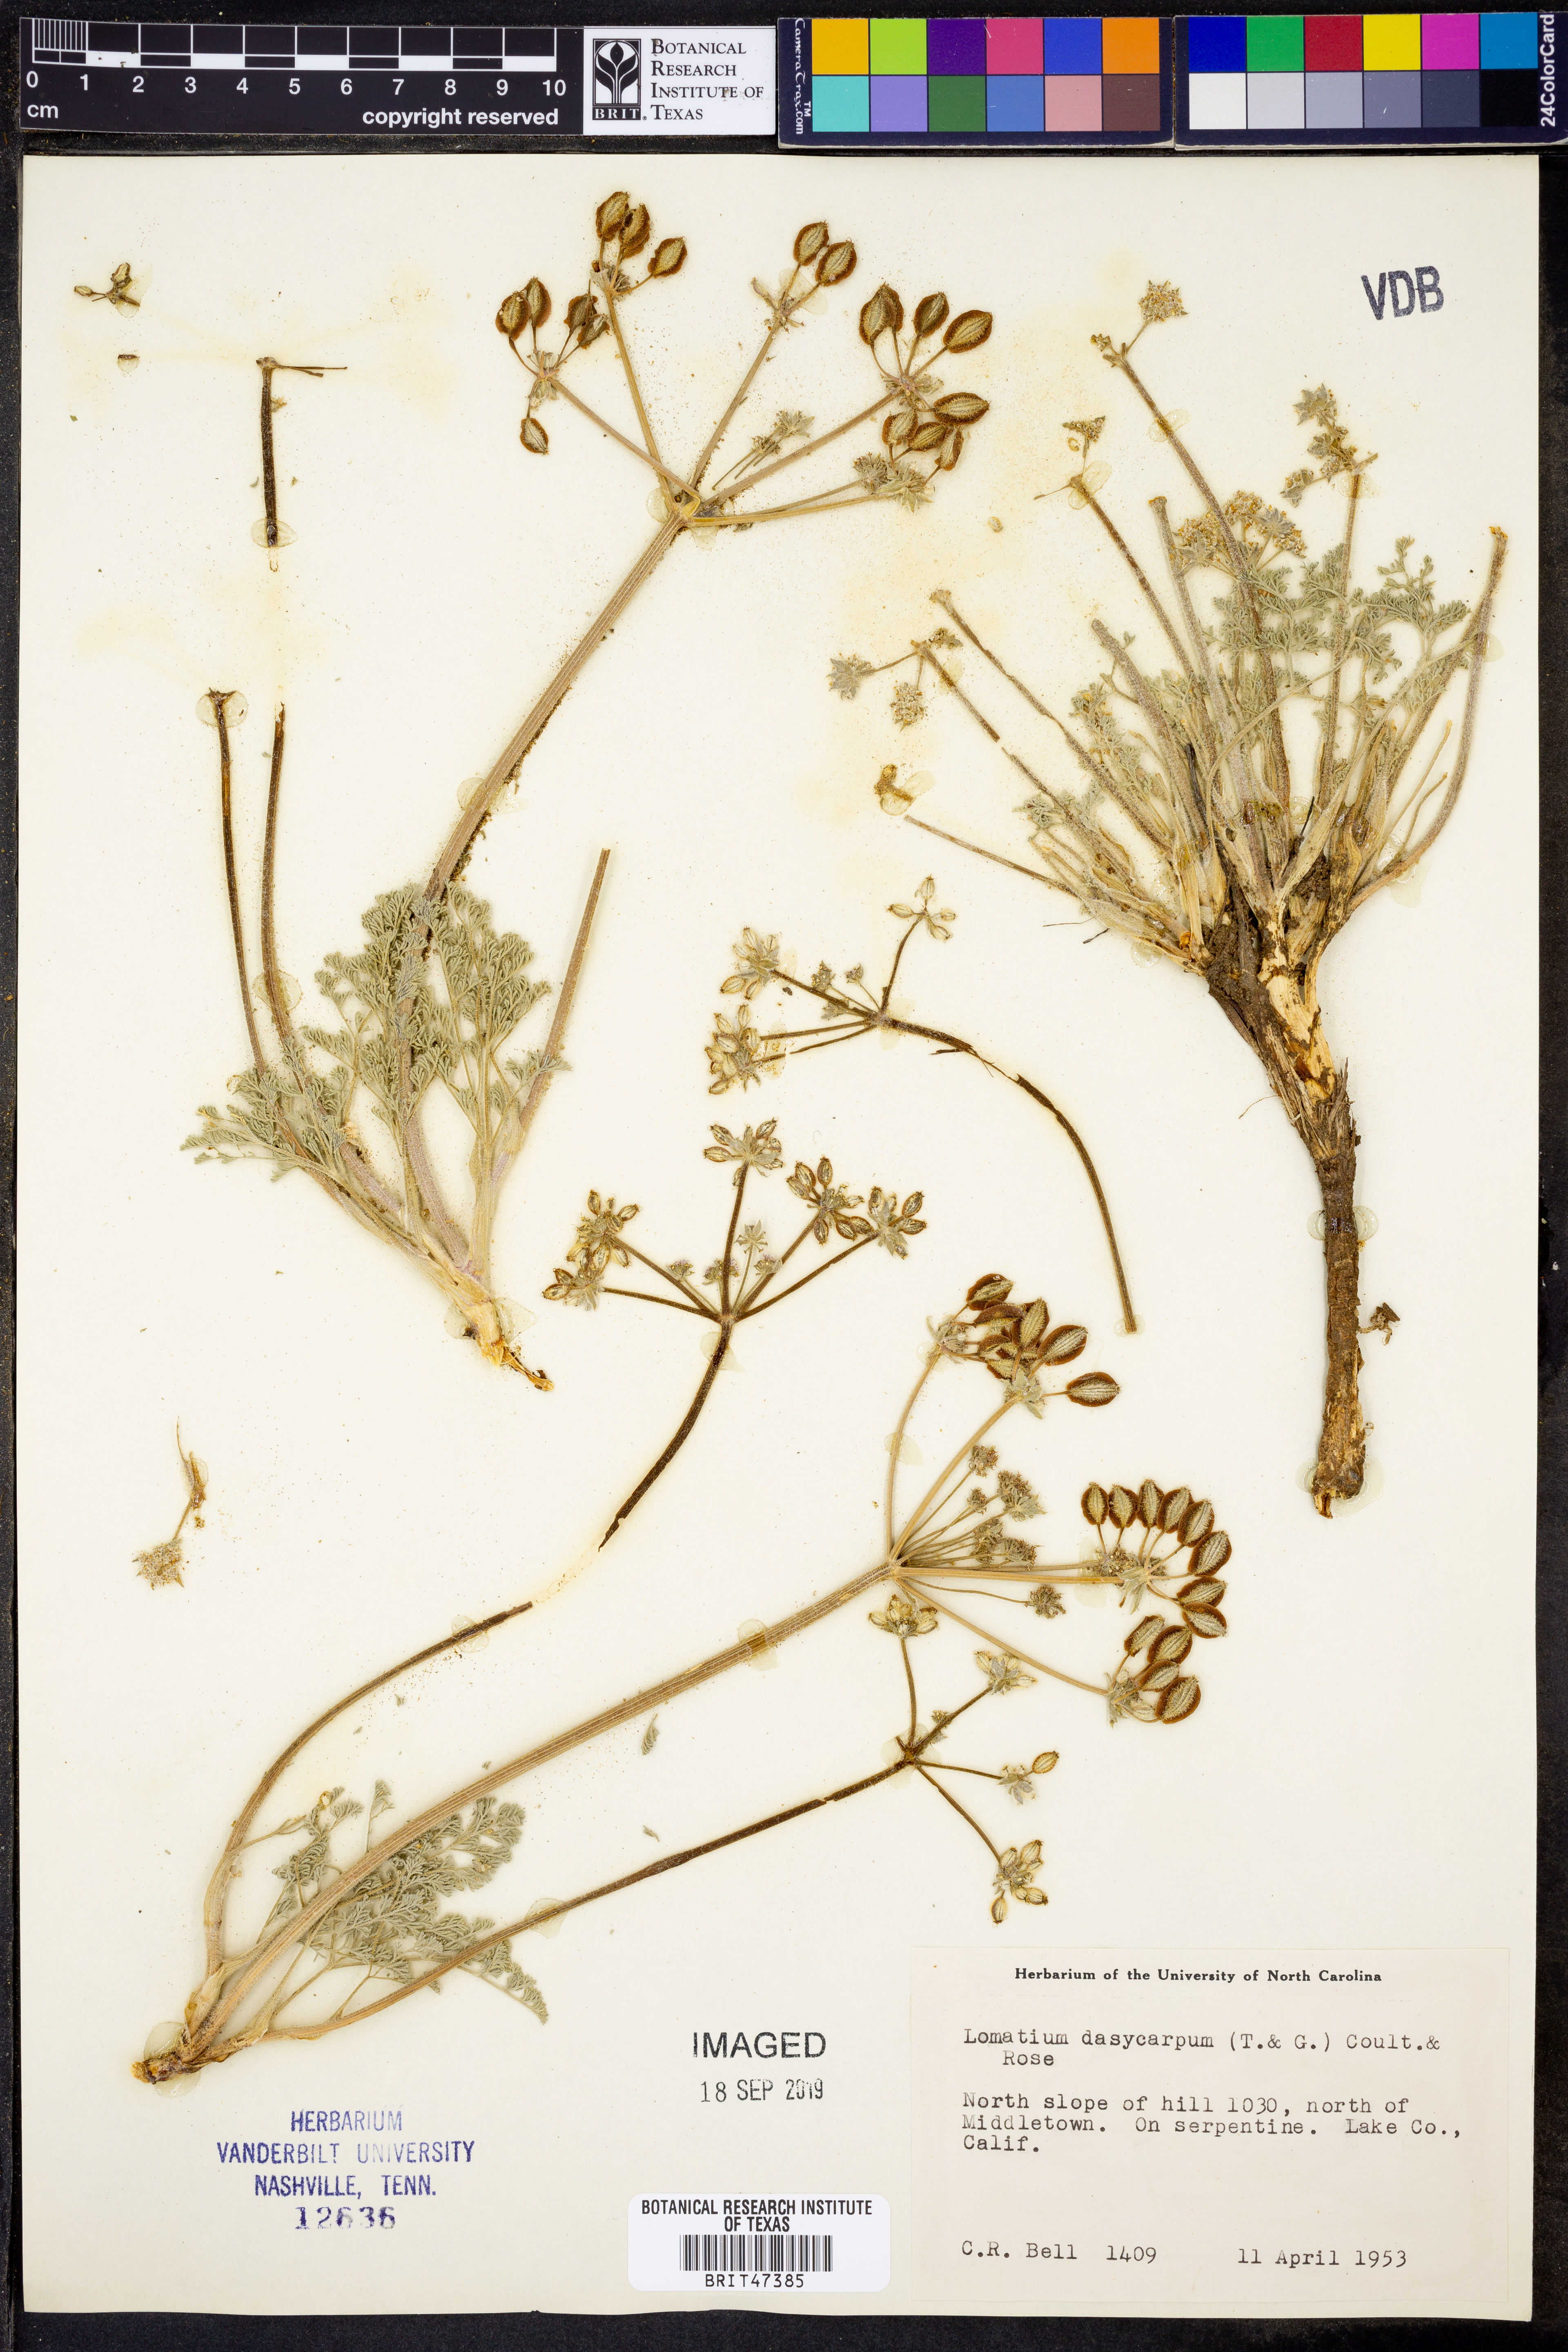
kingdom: Plantae
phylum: Tracheophyta
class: Magnoliopsida
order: Apiales
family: Apiaceae
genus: Lomatium
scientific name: Lomatium dasycarpum
